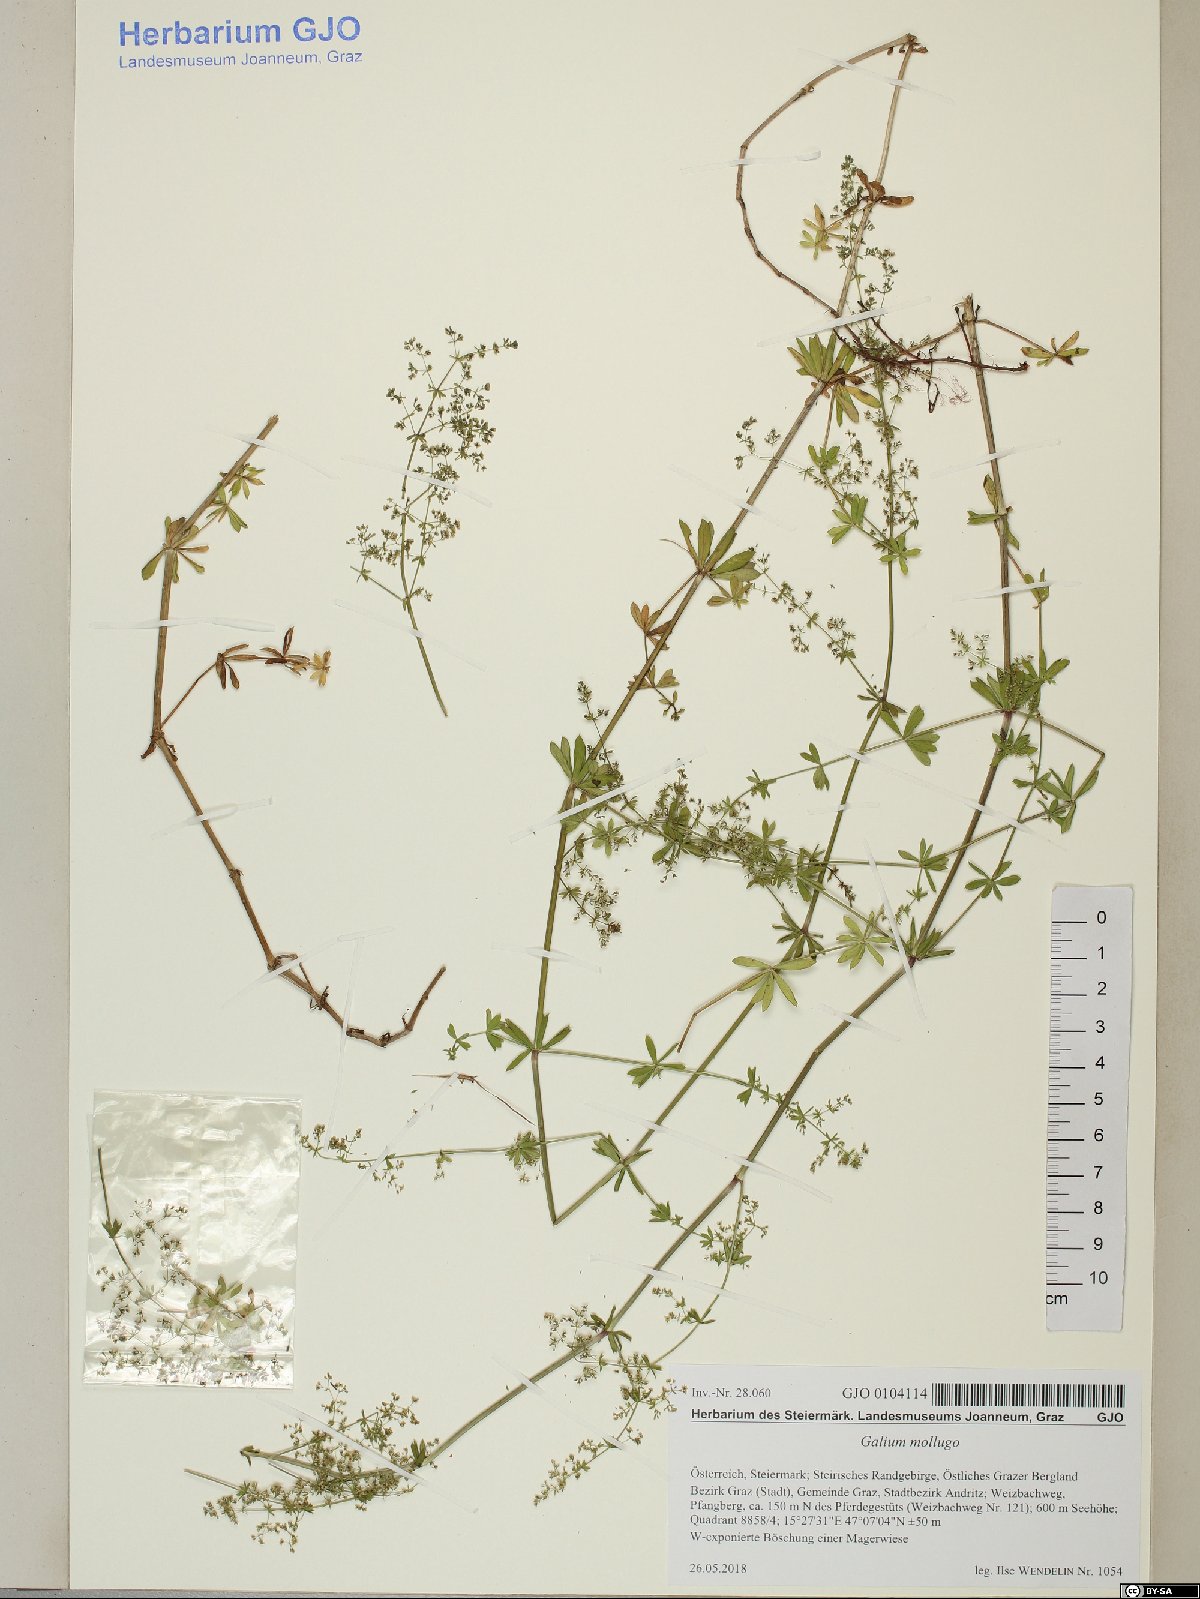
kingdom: Plantae
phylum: Tracheophyta
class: Magnoliopsida
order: Gentianales
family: Rubiaceae
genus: Galium
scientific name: Galium mollugo
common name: Hedge bedstraw
